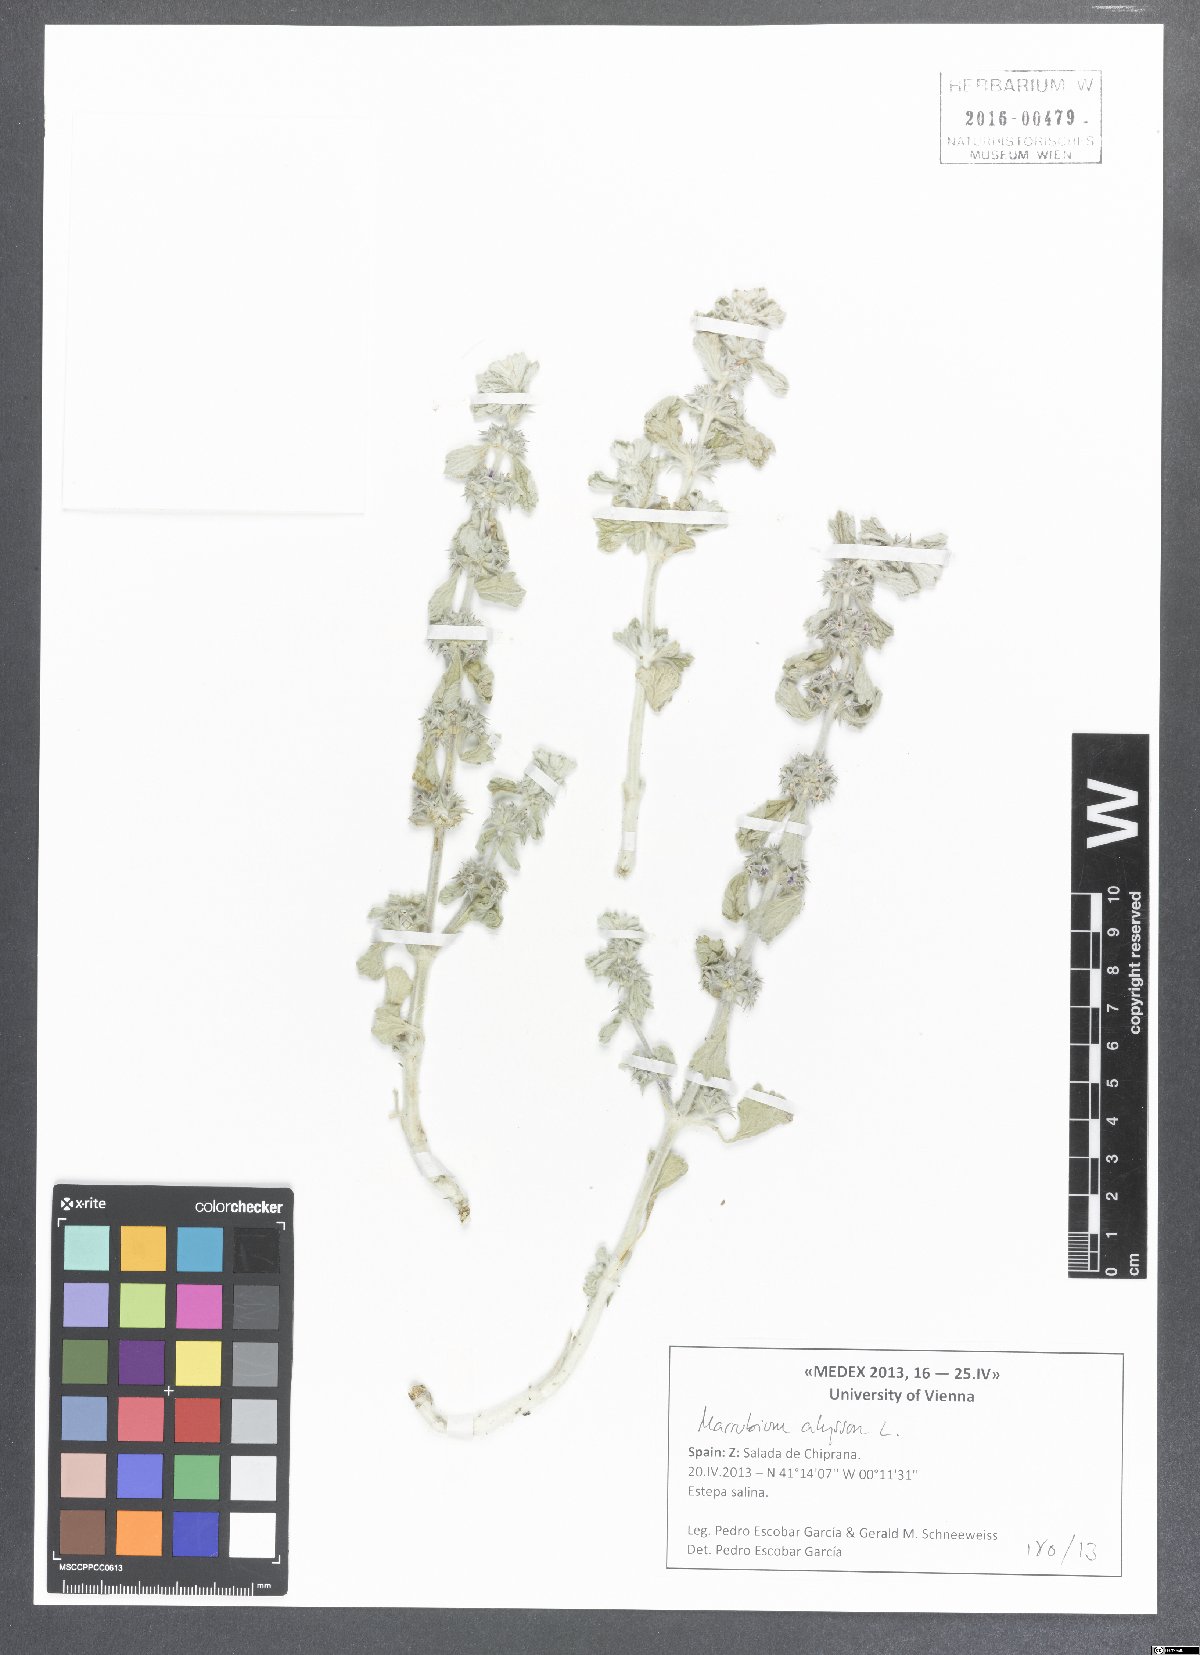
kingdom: Plantae
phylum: Tracheophyta
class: Magnoliopsida
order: Lamiales
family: Lamiaceae
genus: Marrubium
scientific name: Marrubium alysson
